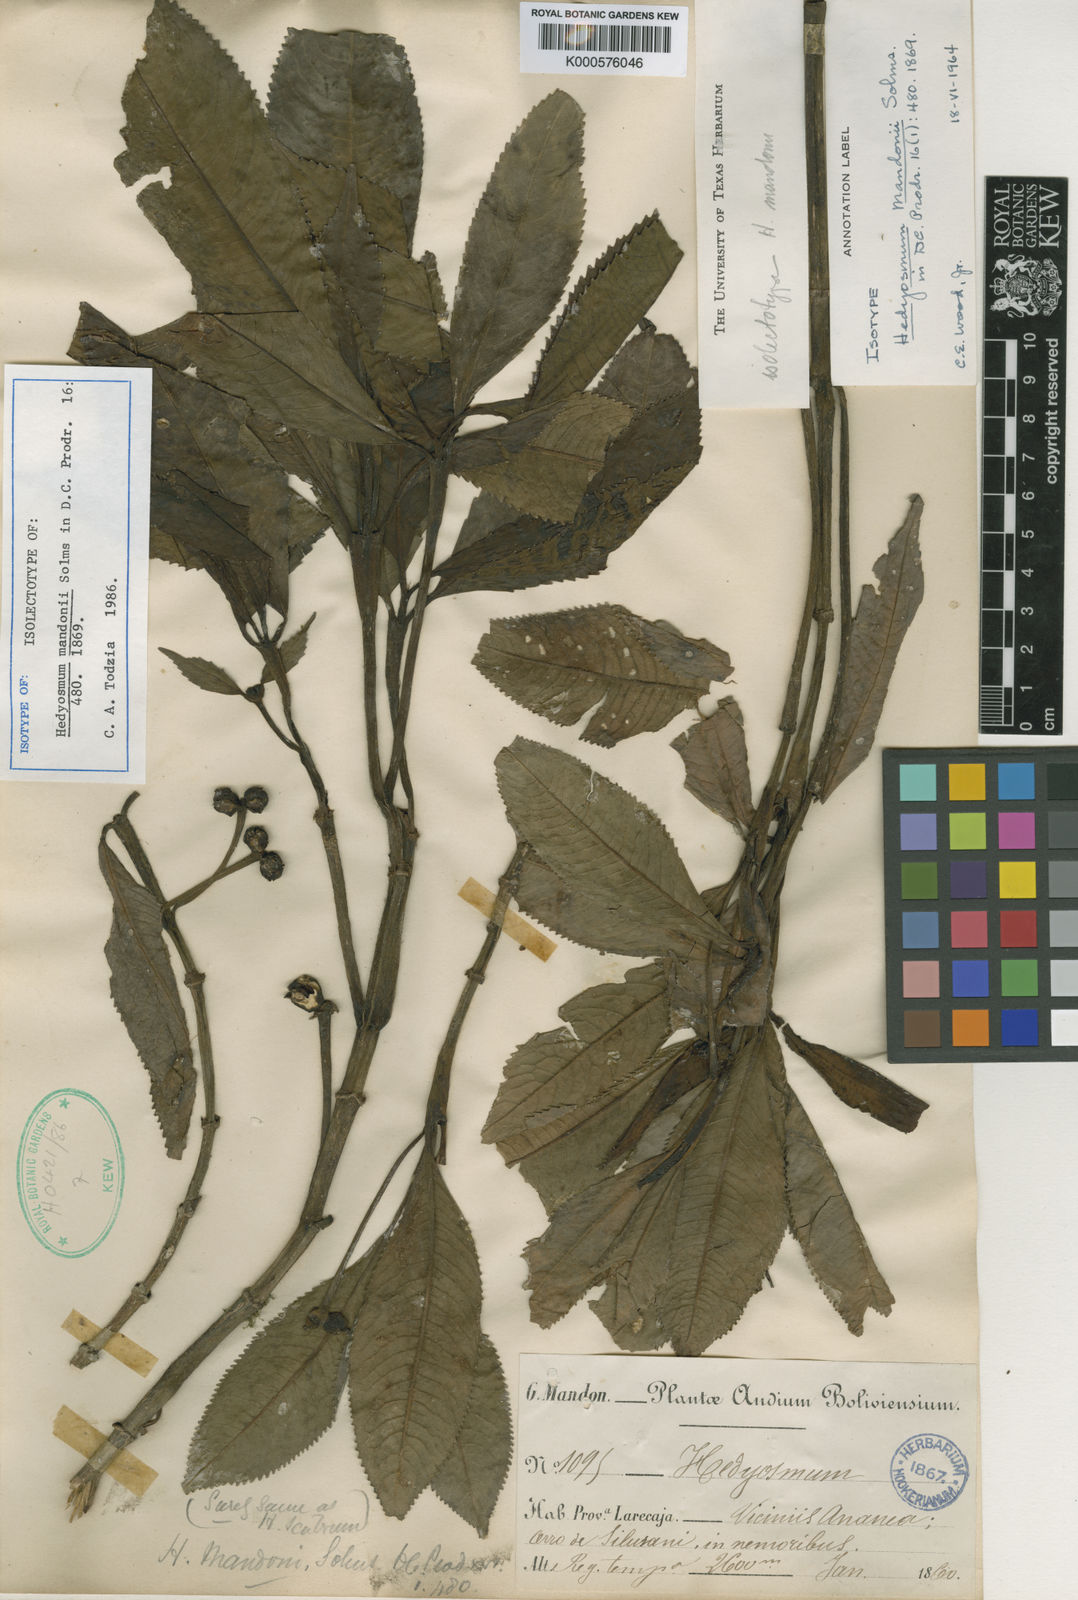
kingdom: Plantae
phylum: Tracheophyta
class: Magnoliopsida
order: Chloranthales
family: Chloranthaceae
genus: Hedyosmum
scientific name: Hedyosmum scabrum
